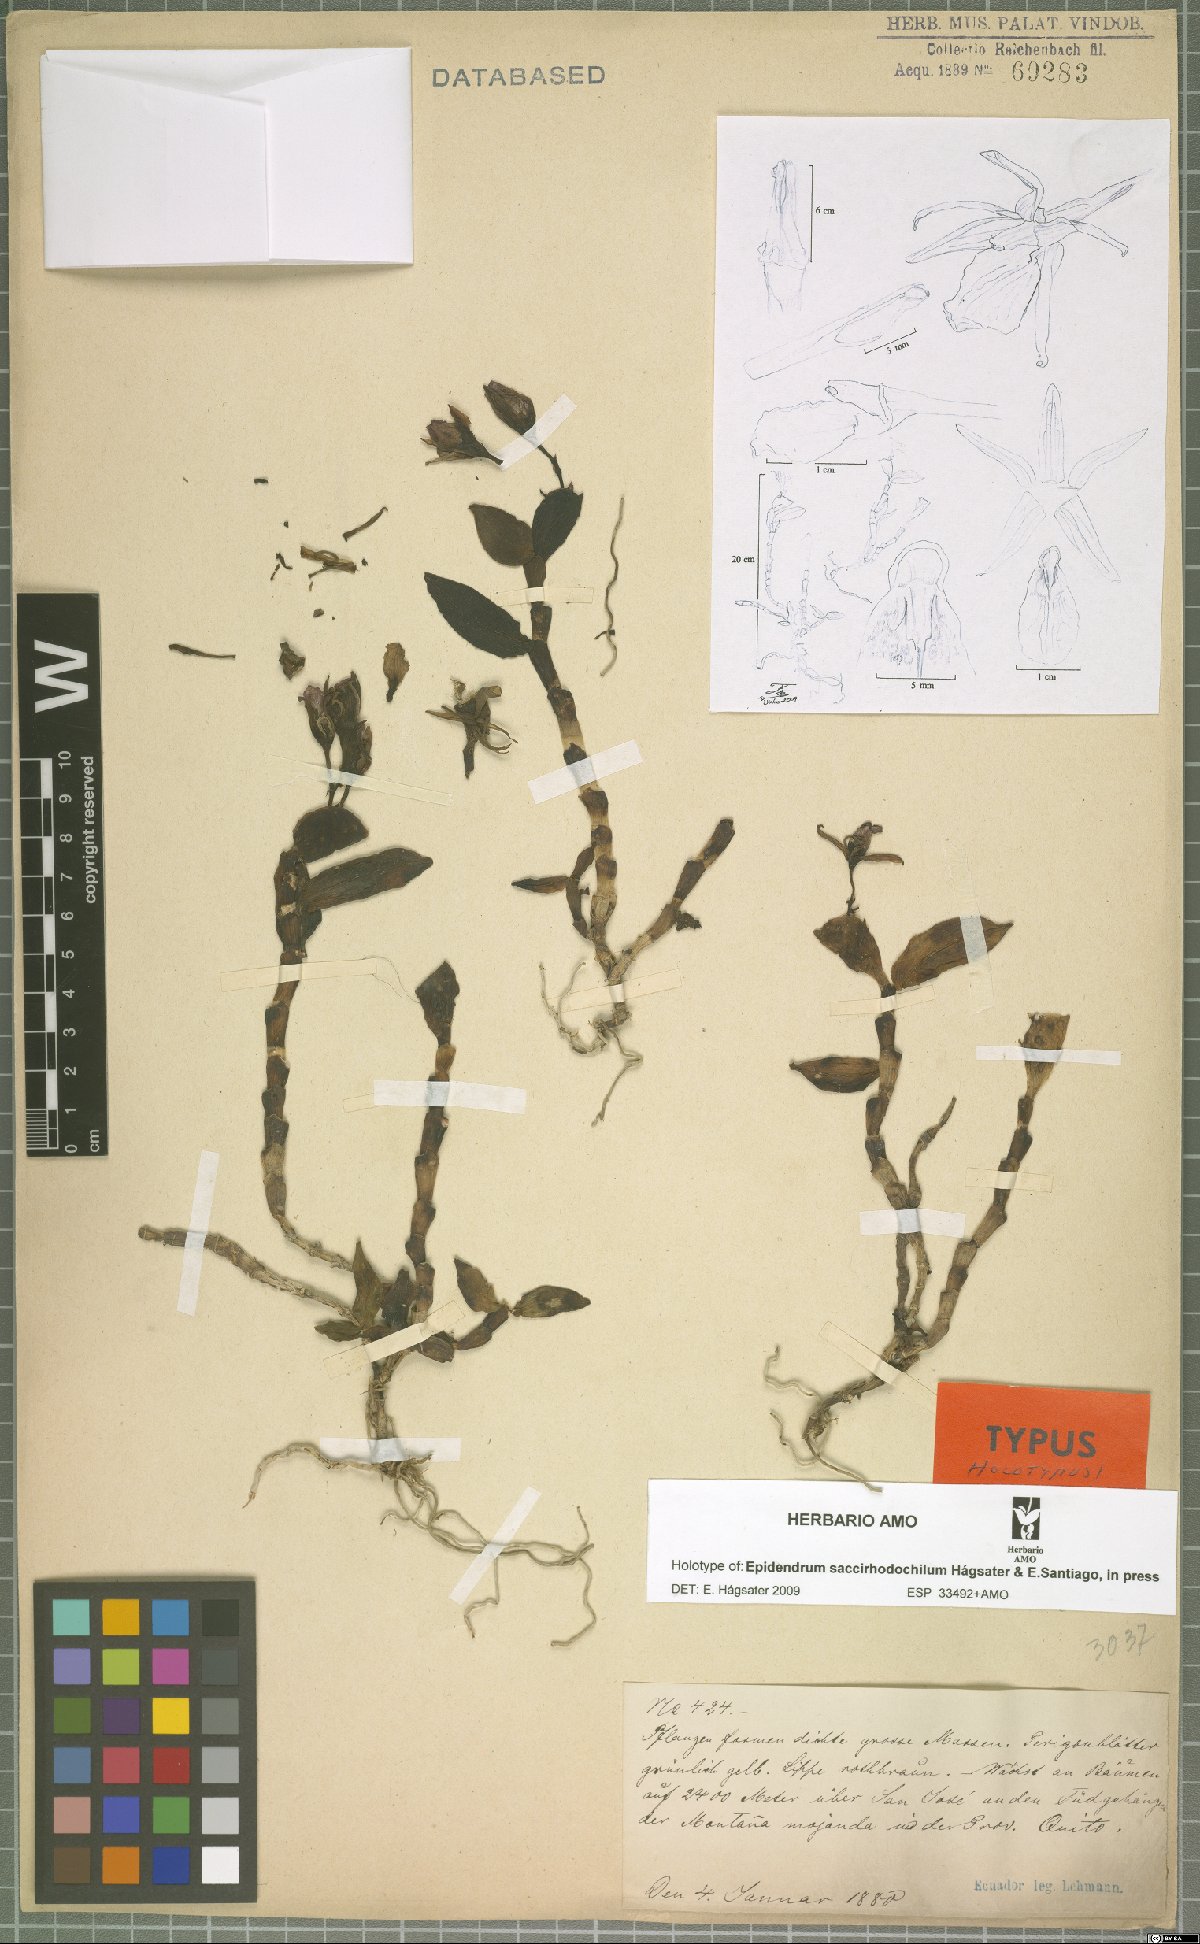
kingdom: Plantae
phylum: Tracheophyta
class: Liliopsida
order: Asparagales
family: Orchidaceae
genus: Epidendrum
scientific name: Epidendrum saccirhodochilum
